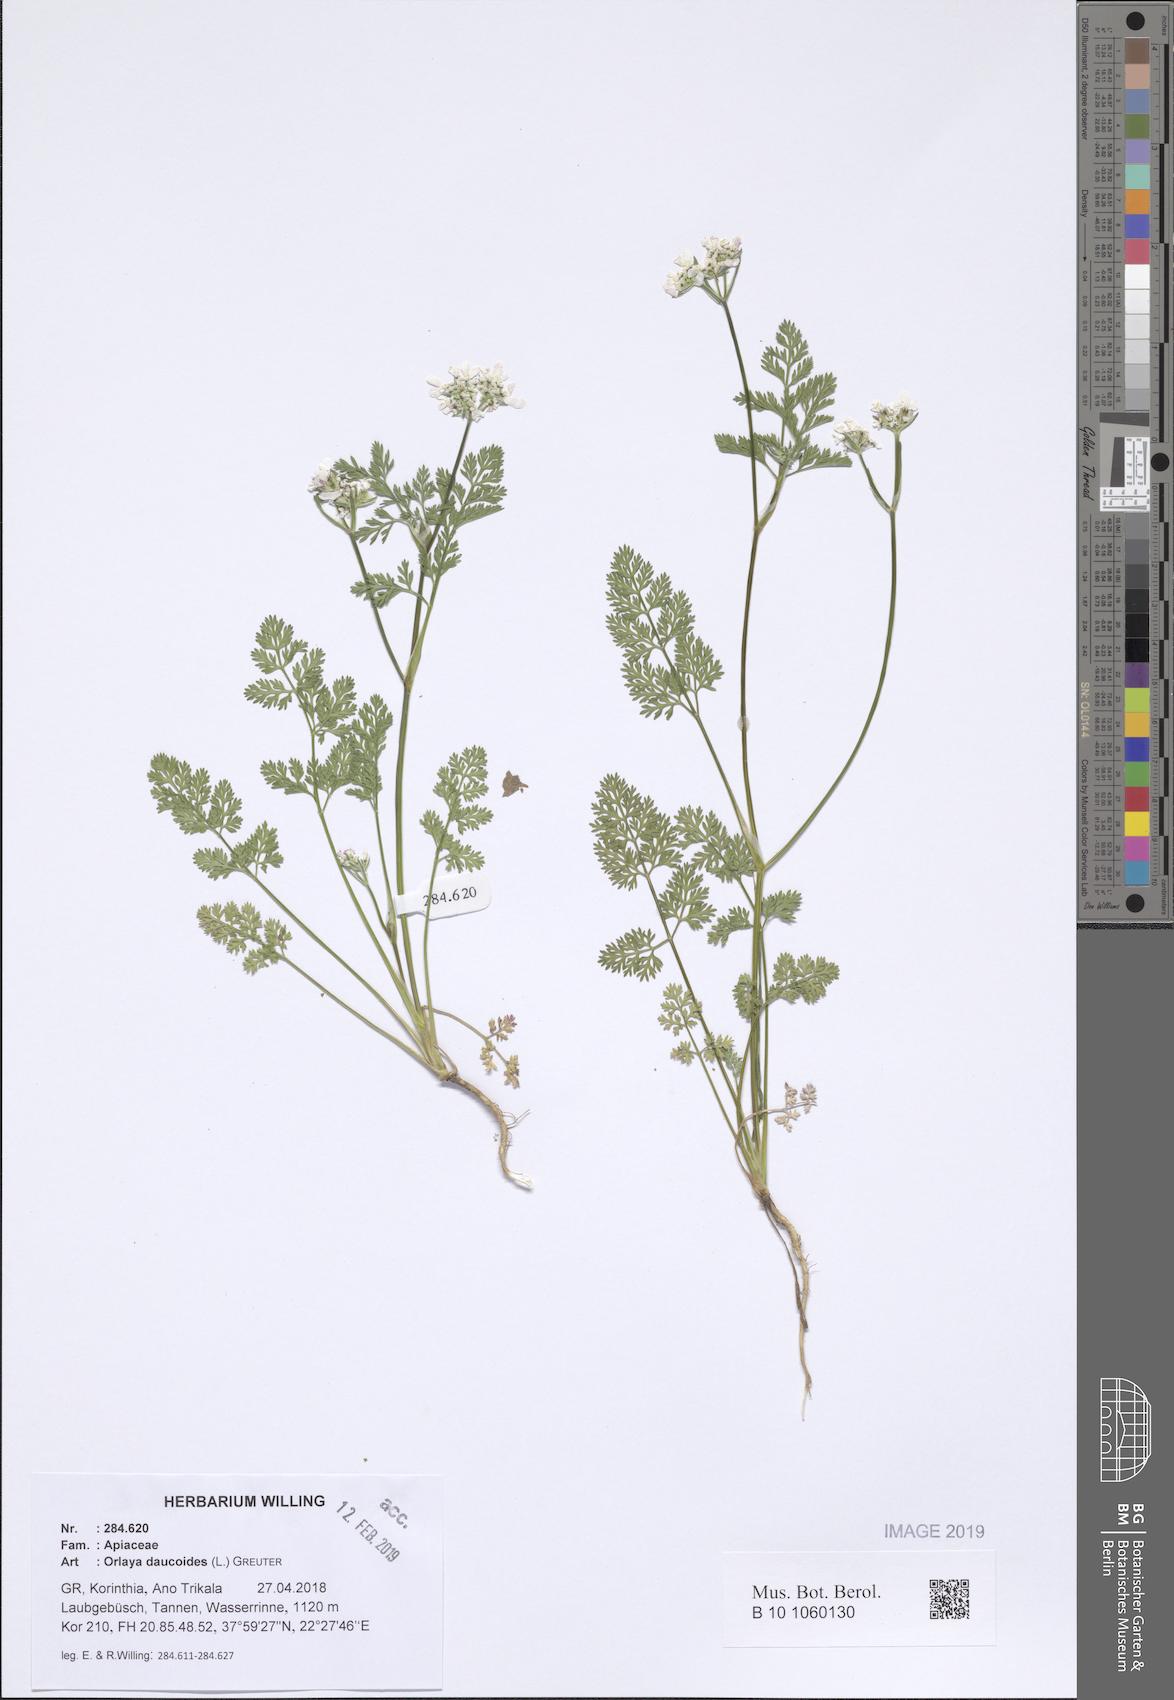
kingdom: Plantae
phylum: Tracheophyta
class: Magnoliopsida
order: Apiales
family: Apiaceae
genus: Orlaya
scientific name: Orlaya daucoides
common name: Flat-fruit orlaya
